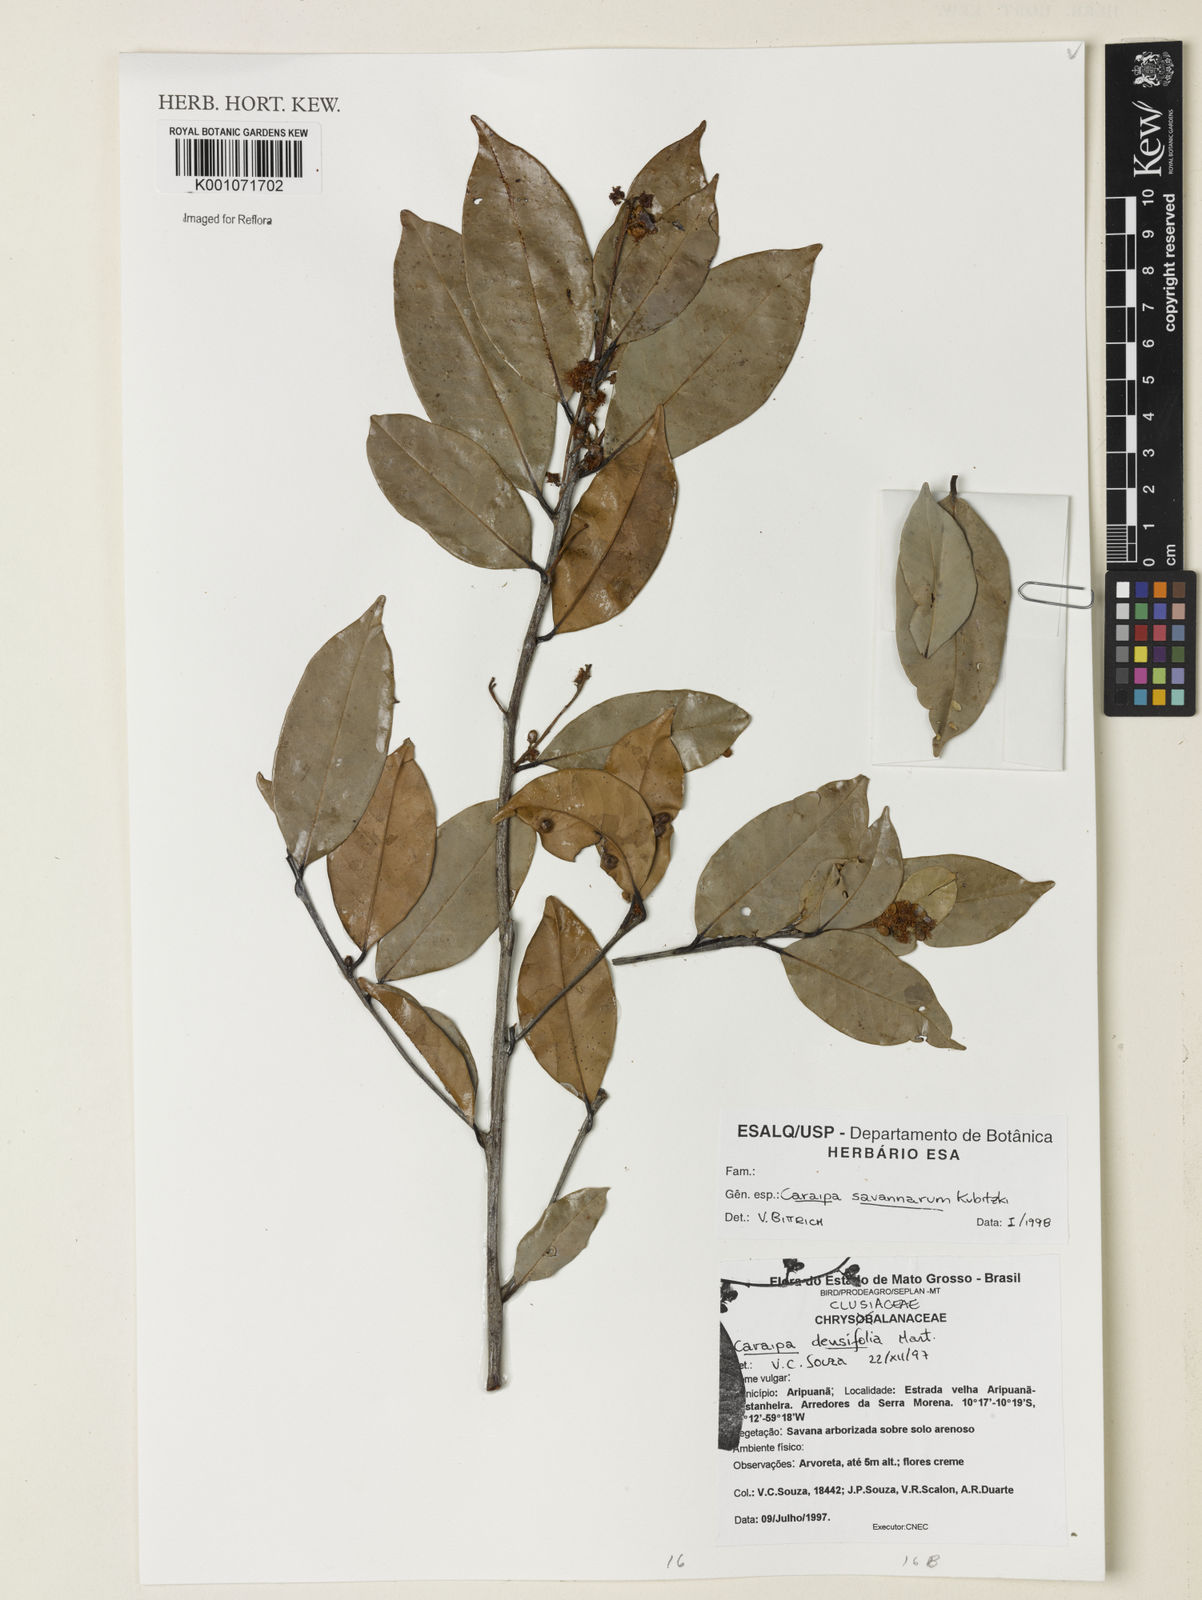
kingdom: Plantae
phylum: Tracheophyta
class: Magnoliopsida
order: Malpighiales
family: Calophyllaceae
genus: Caraipa
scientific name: Caraipa savannarum
